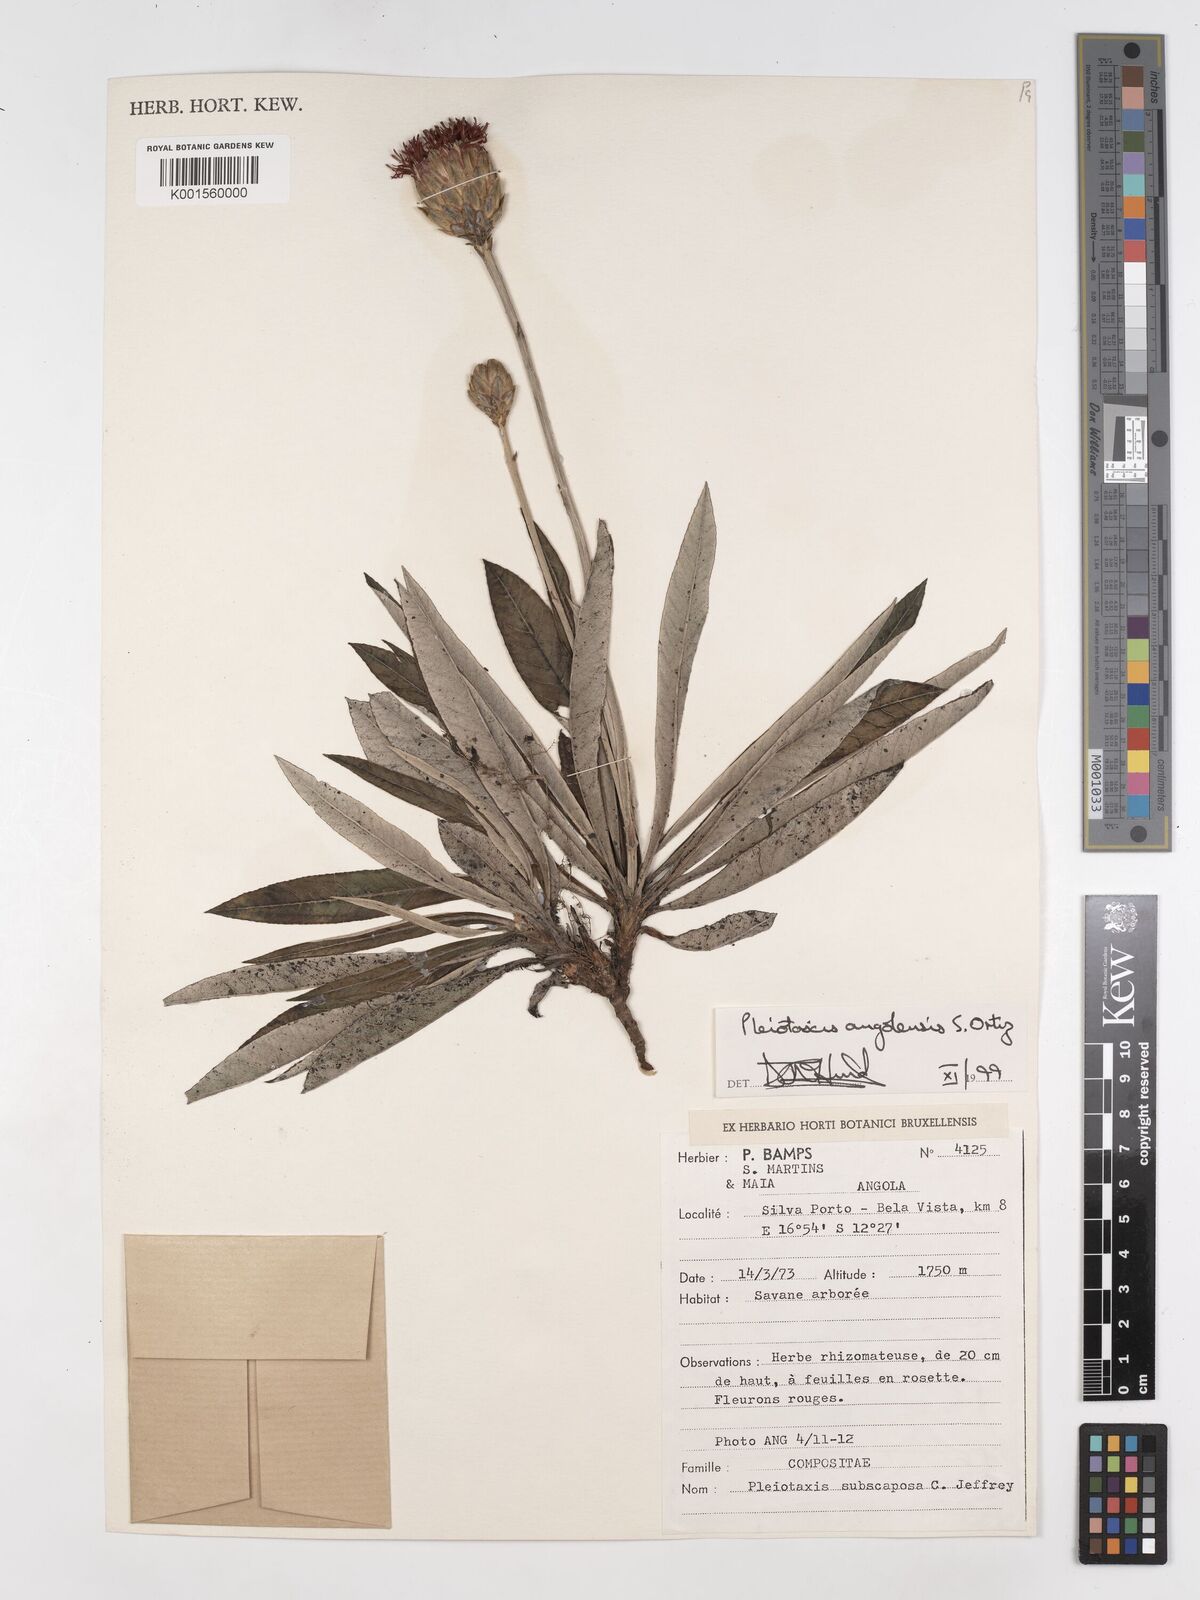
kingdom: Plantae
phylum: Tracheophyta
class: Magnoliopsida
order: Asterales
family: Asteraceae
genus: Pleiotaxis
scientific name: Pleiotaxis angolensis
